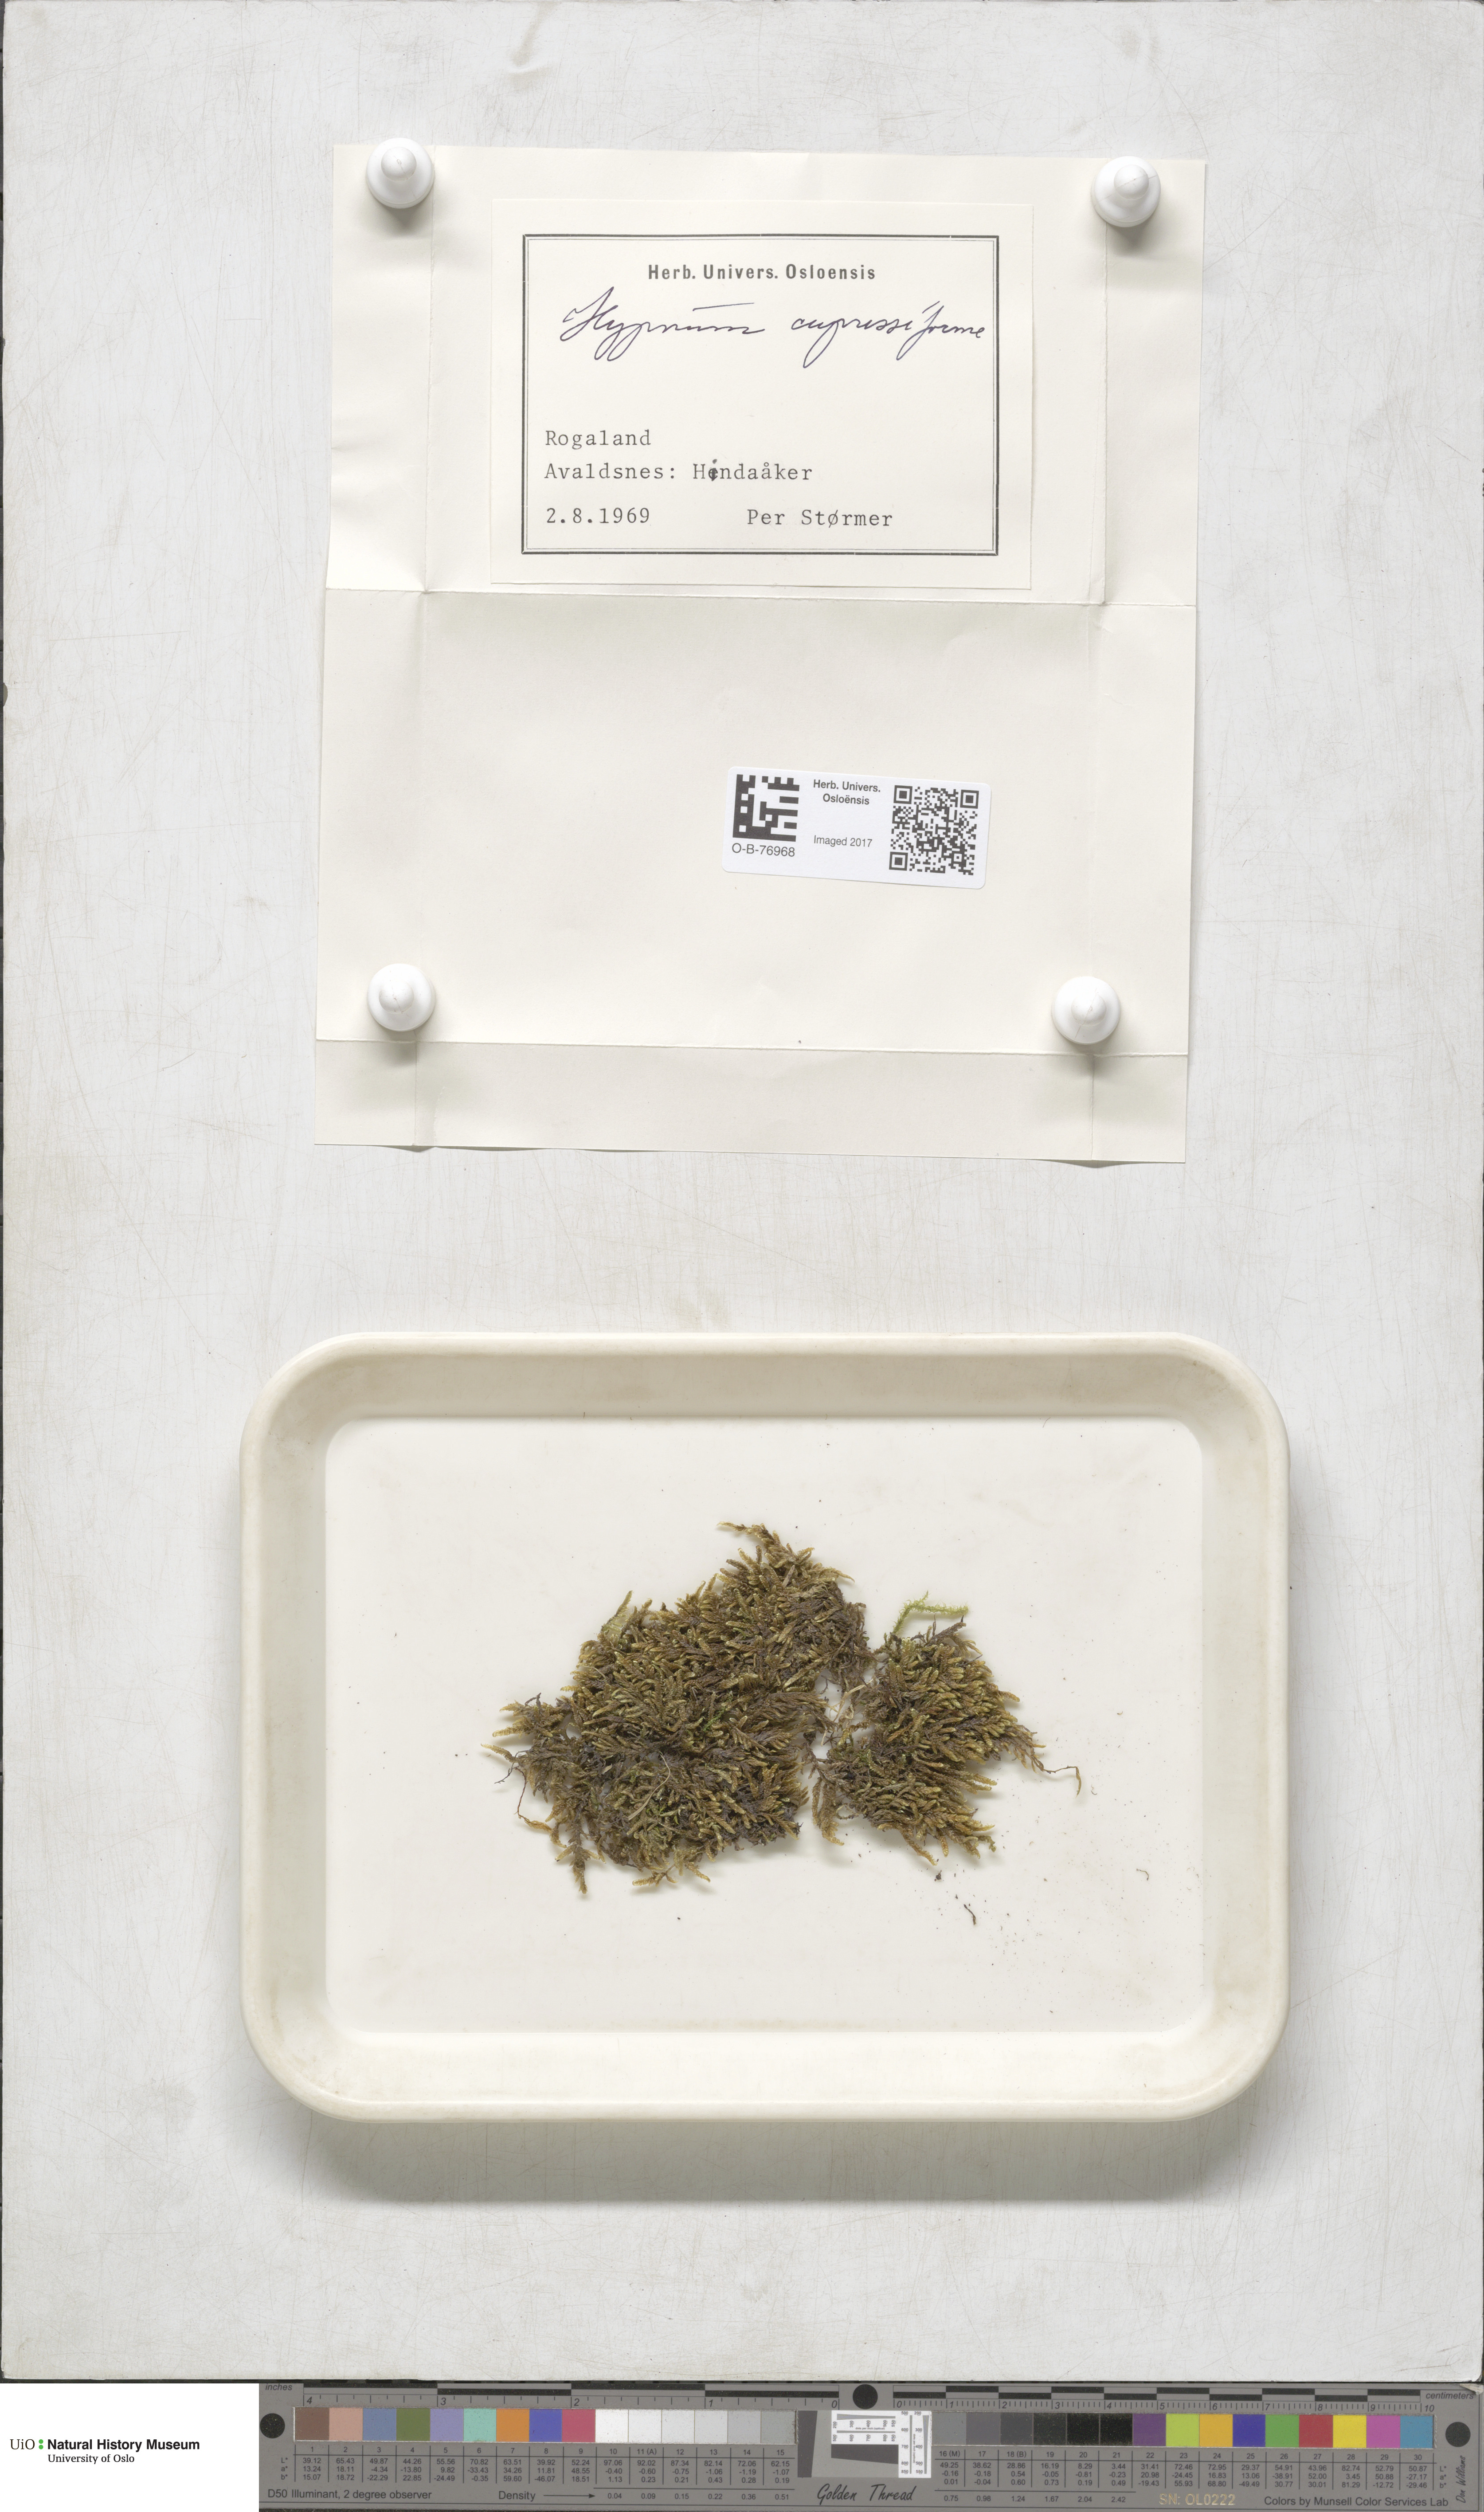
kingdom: Plantae
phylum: Bryophyta
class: Bryopsida
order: Hypnales
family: Hypnaceae
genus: Hypnum
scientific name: Hypnum cupressiforme
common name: Cypress-leaved plait-moss
